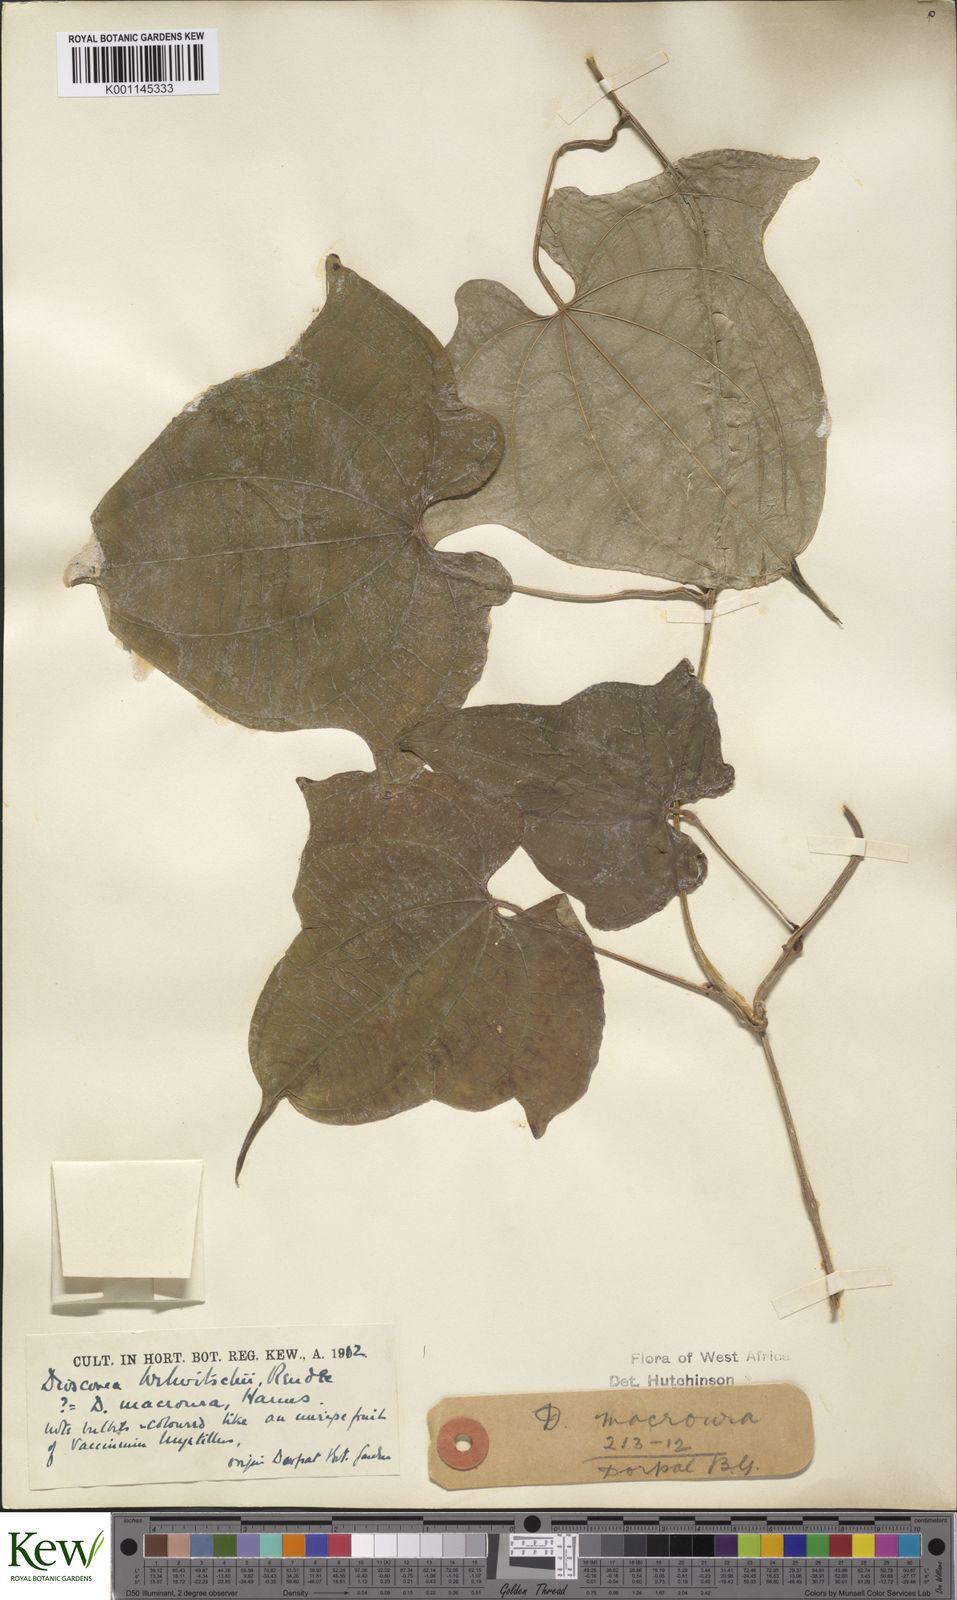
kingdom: Plantae
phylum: Tracheophyta
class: Liliopsida
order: Dioscoreales
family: Dioscoreaceae
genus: Dioscorea
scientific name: Dioscorea sansibarensis
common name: Zanzibar yam
